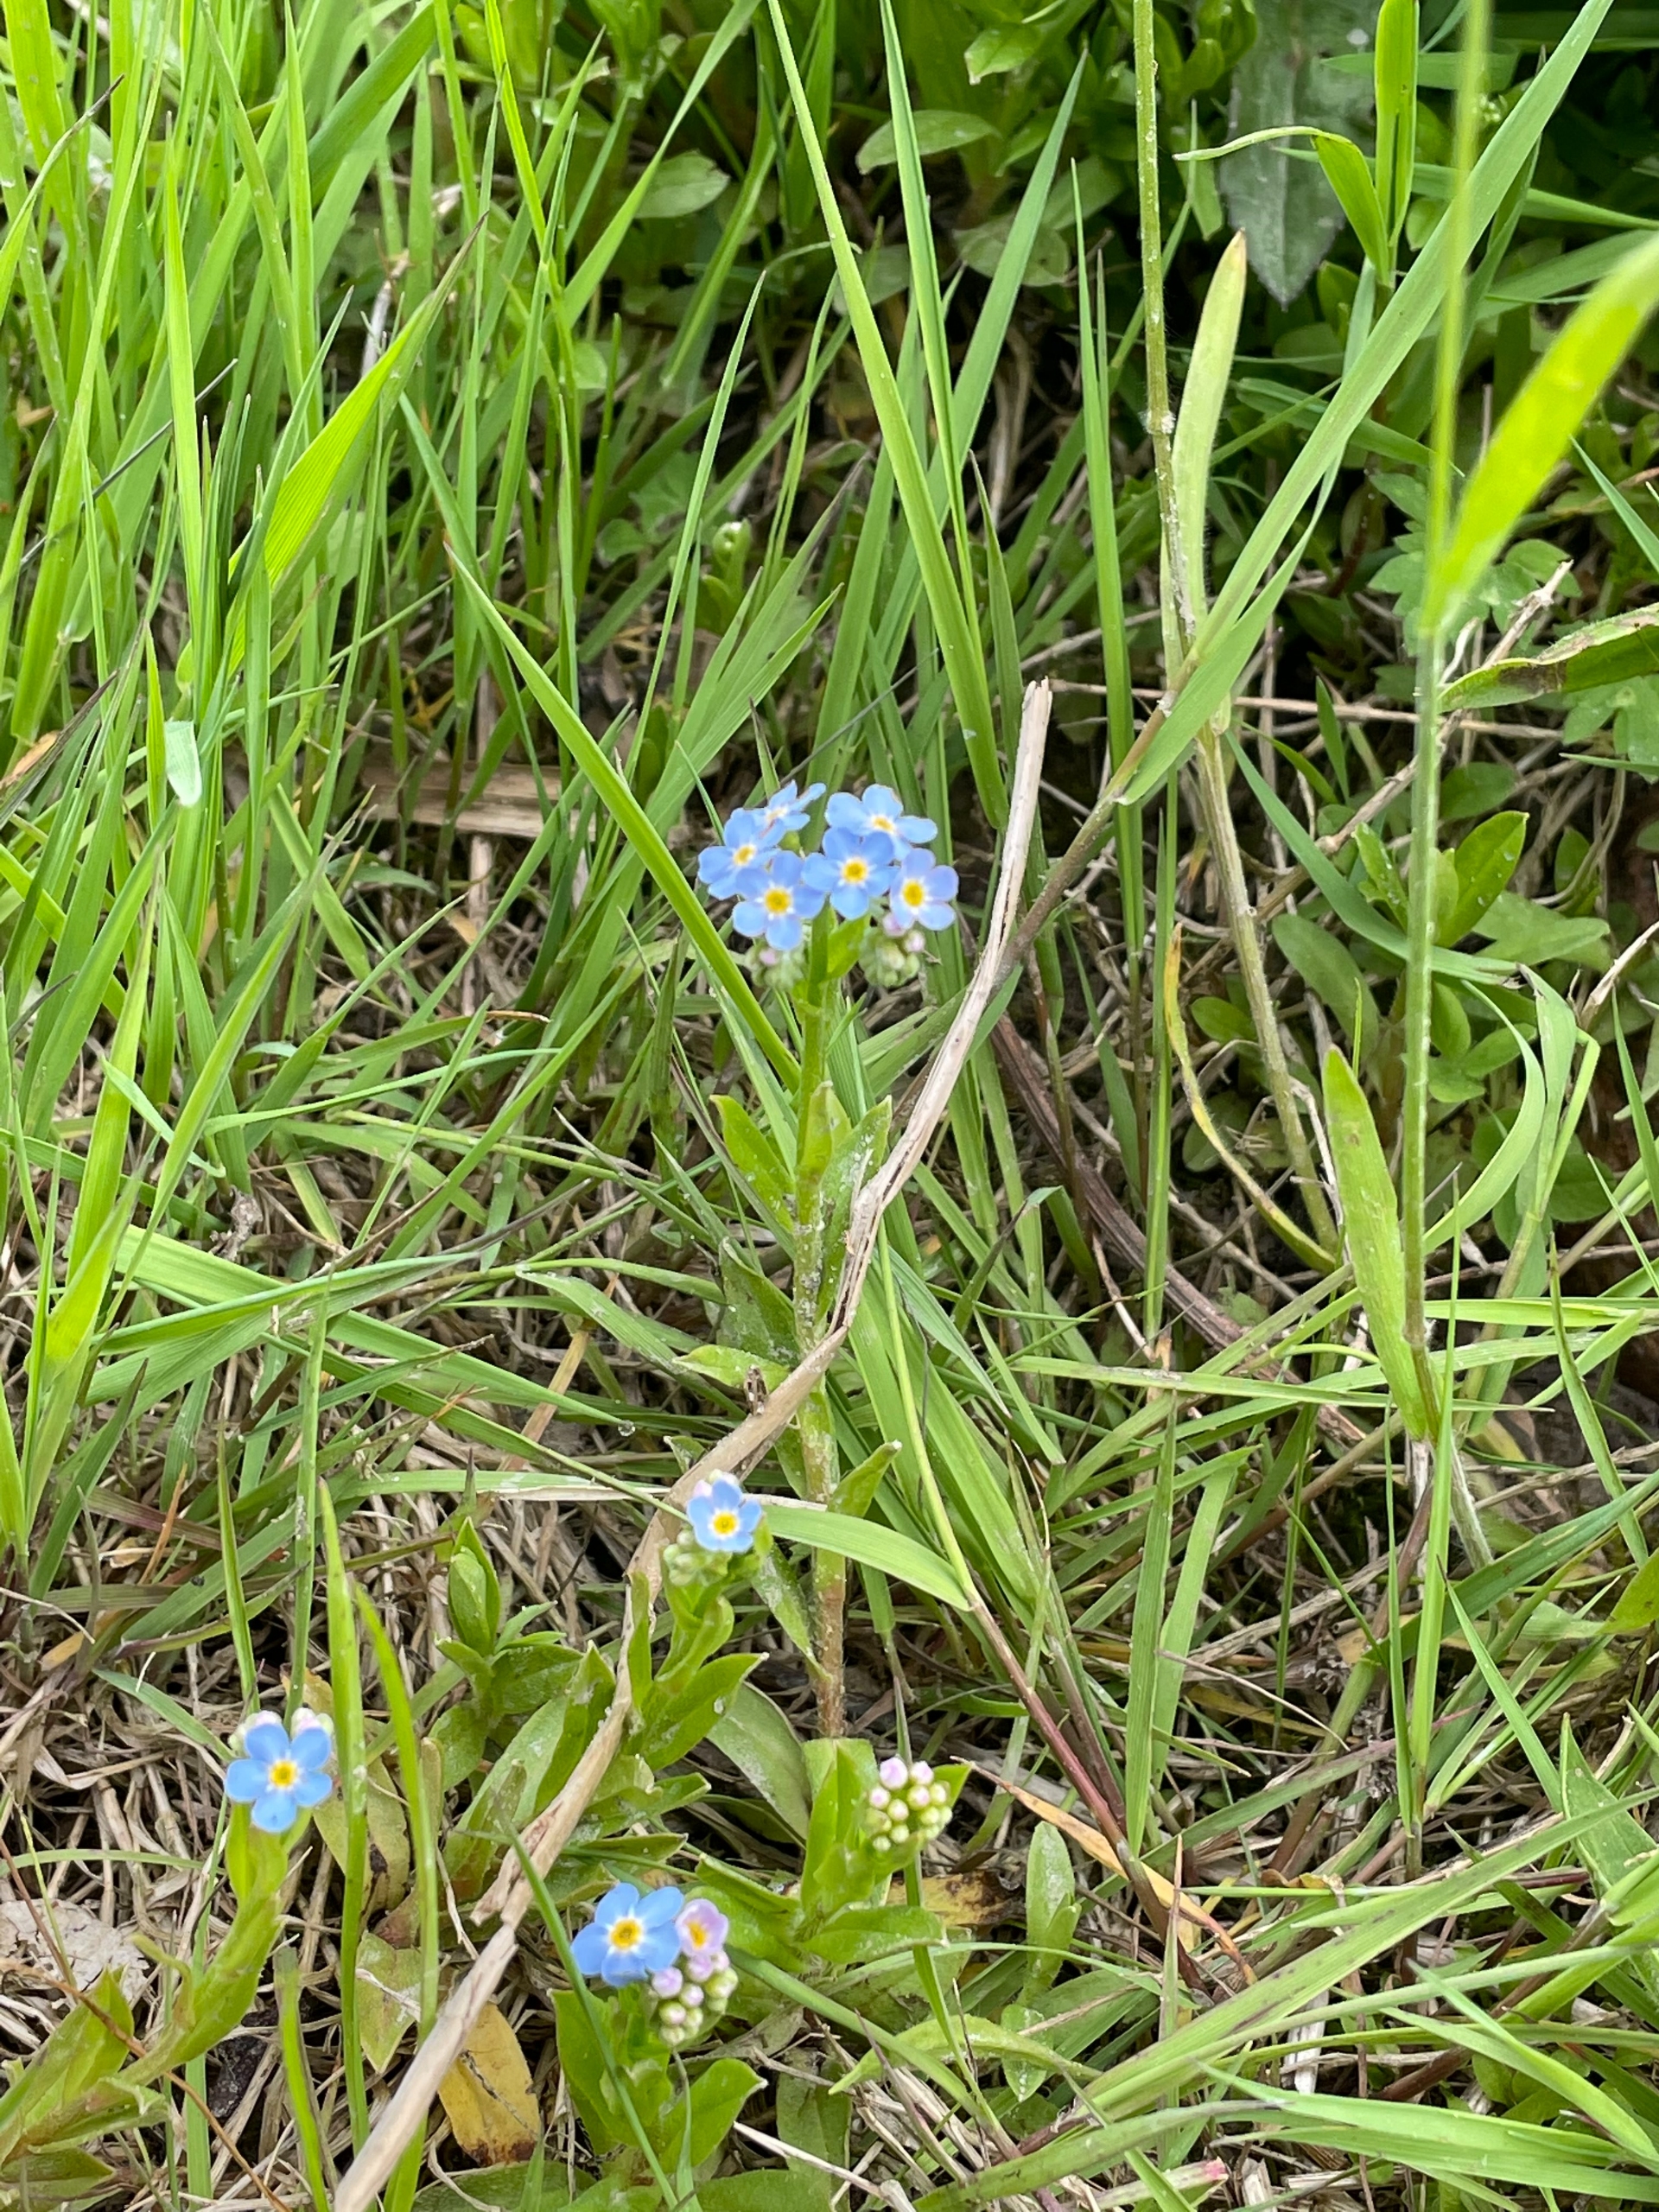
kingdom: Plantae
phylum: Tracheophyta
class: Magnoliopsida
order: Boraginales
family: Boraginaceae
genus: Myosotis
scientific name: Myosotis scorpioides
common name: Eng-forglemmigej
